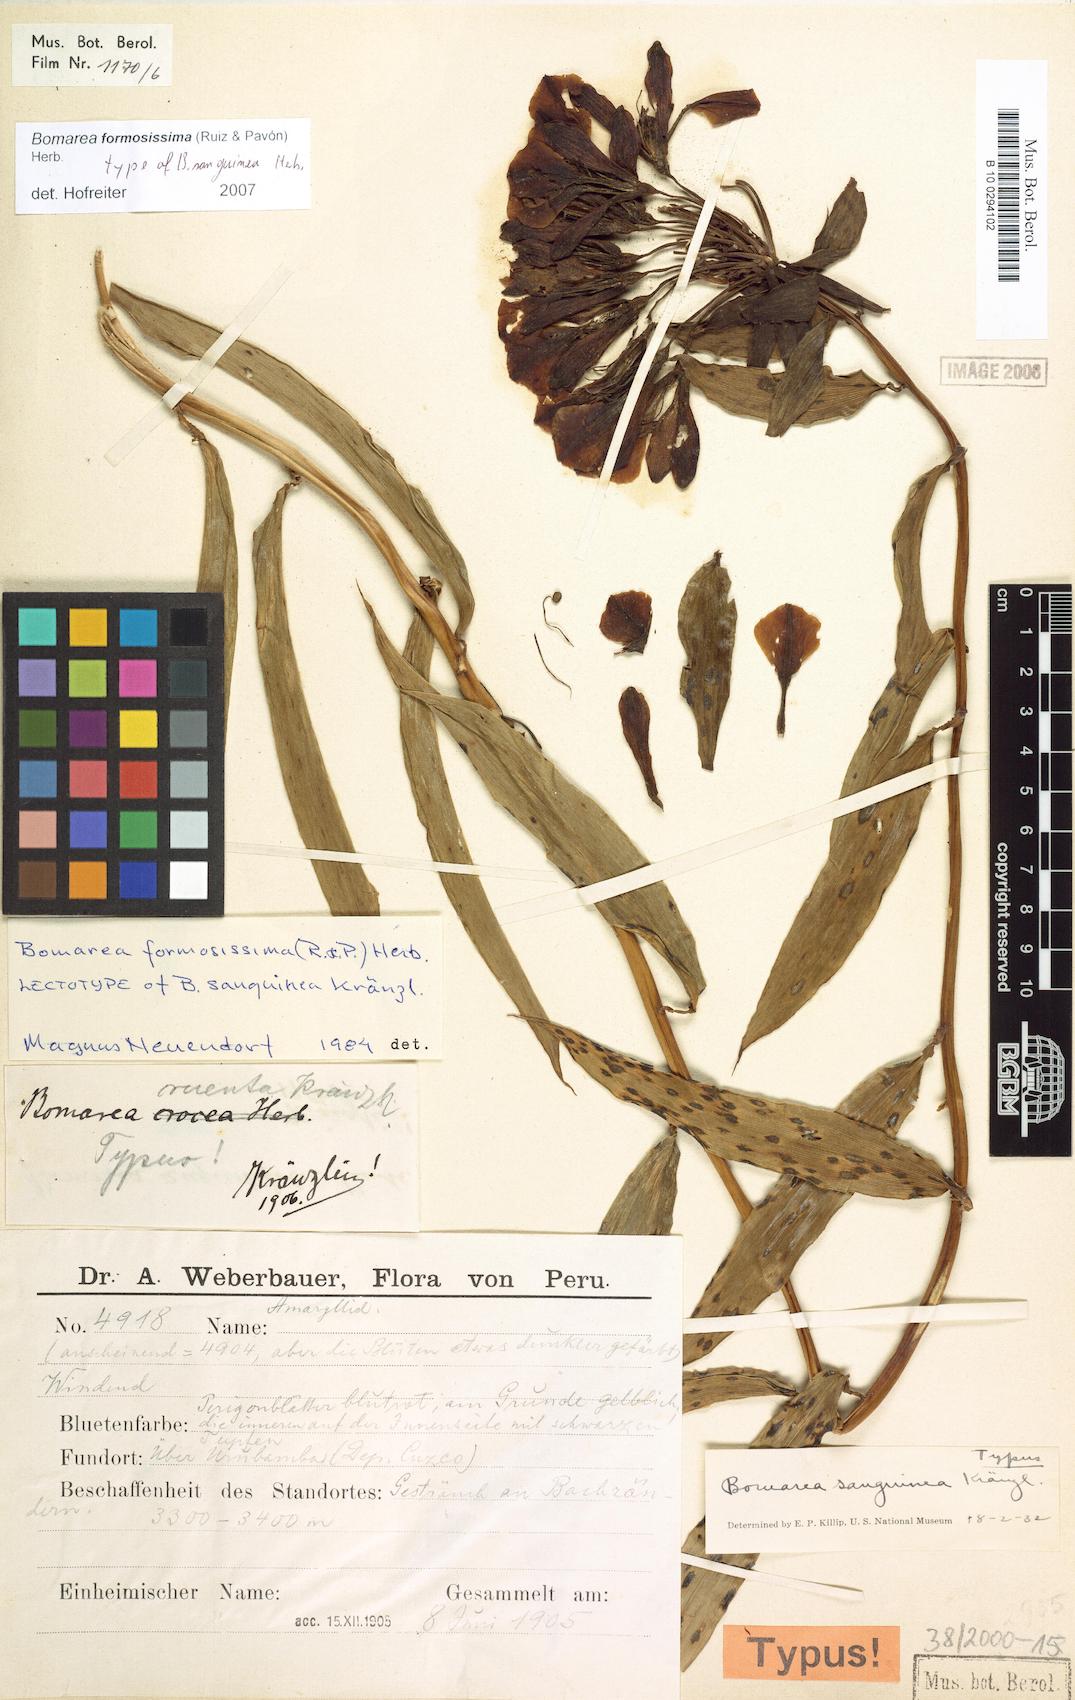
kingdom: Plantae
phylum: Tracheophyta
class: Liliopsida
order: Liliales
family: Alstroemeriaceae
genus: Bomarea
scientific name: Bomarea formosissima
